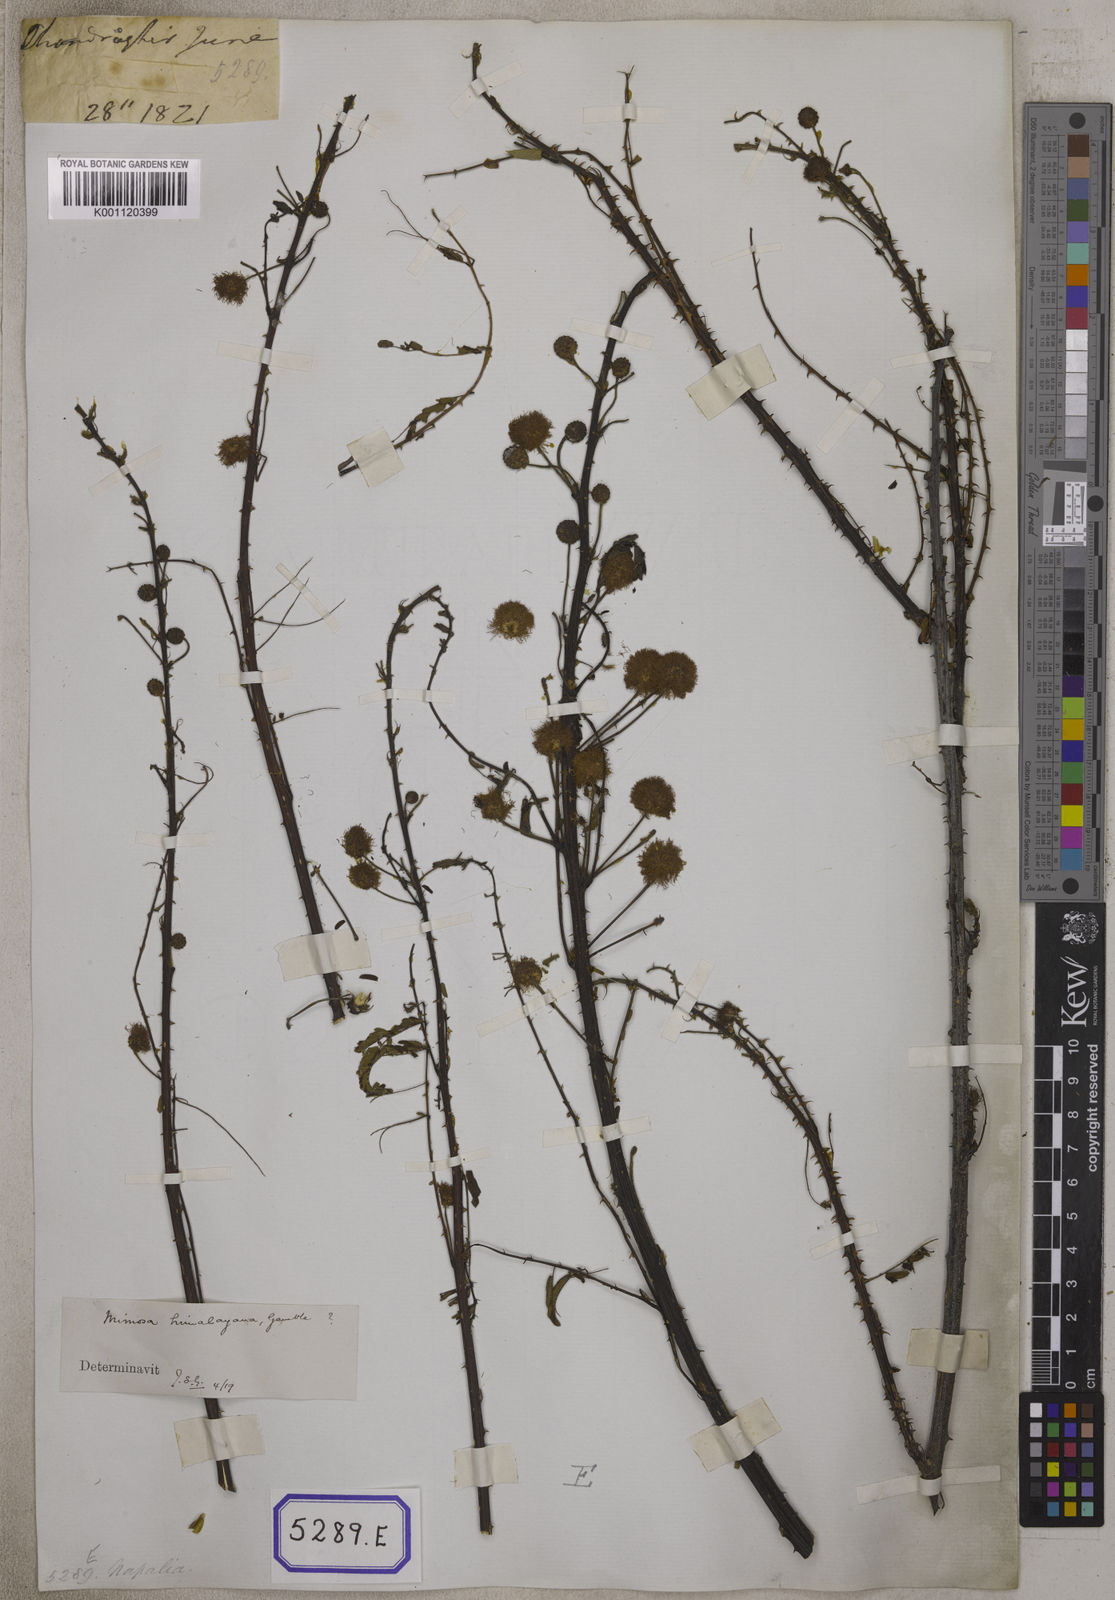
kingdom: Plantae
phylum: Tracheophyta
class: Magnoliopsida
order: Fabales
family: Fabaceae
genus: Mimosa
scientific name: Mimosa rubicaulis
